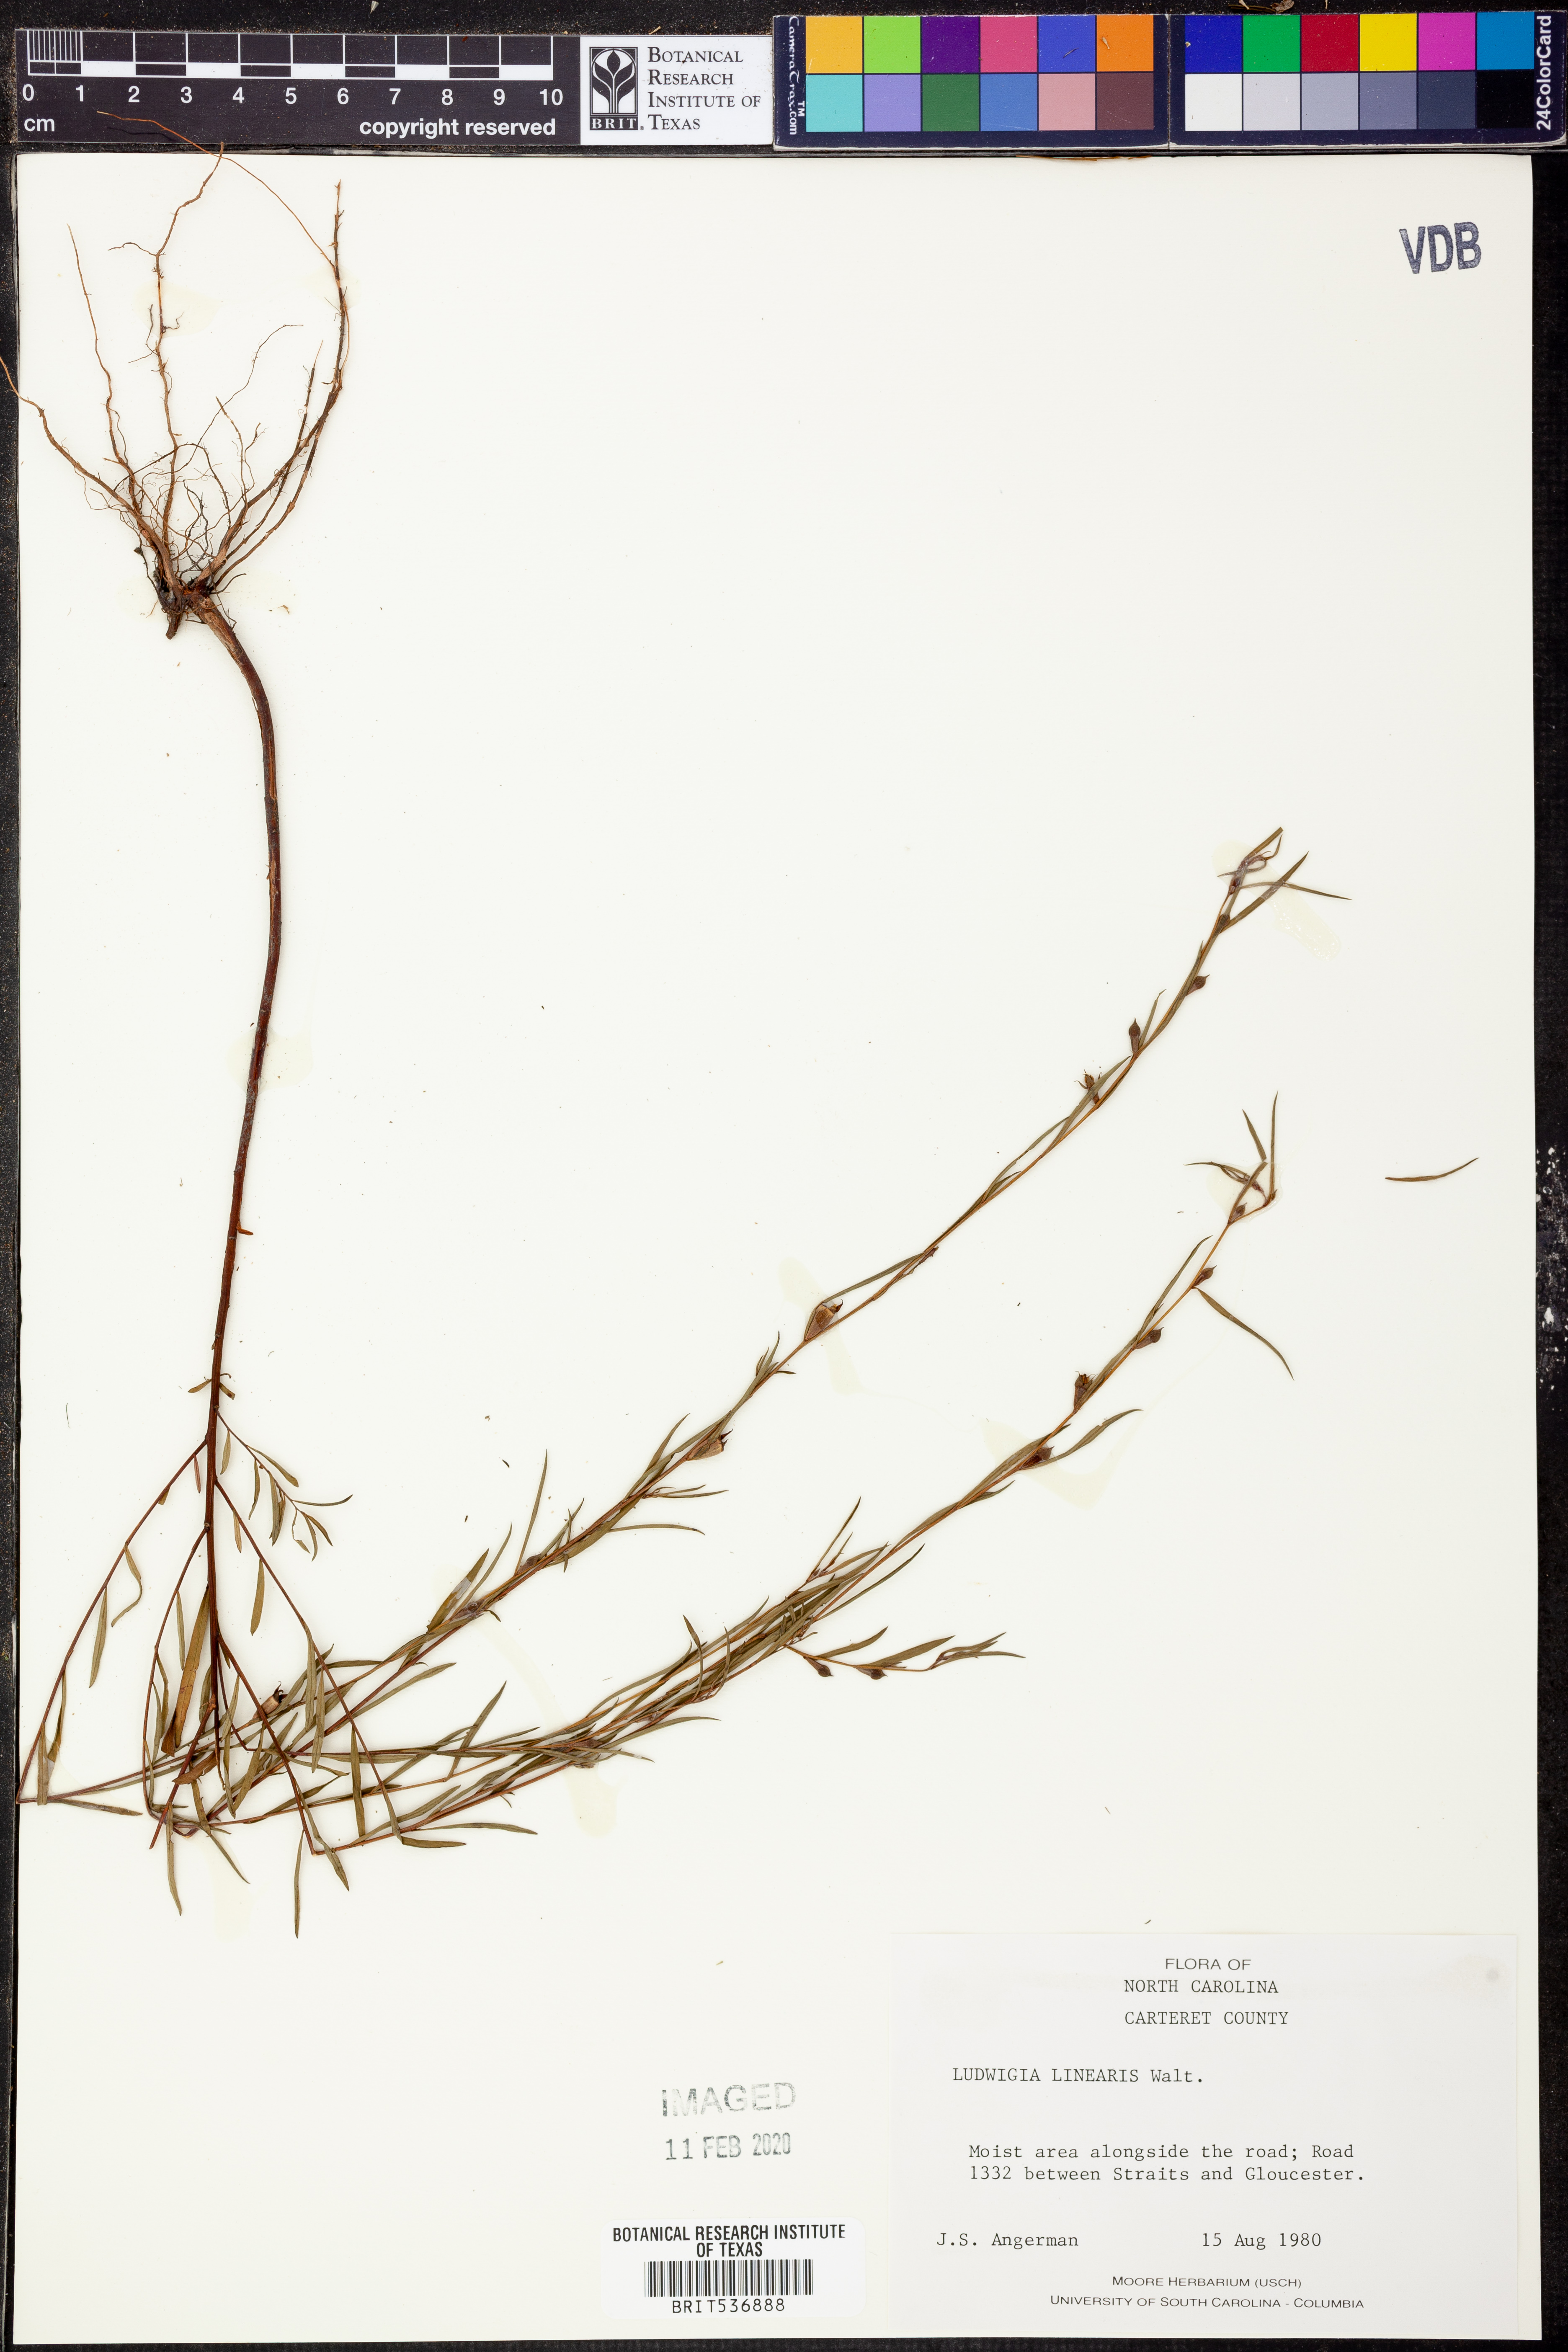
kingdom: Plantae
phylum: Tracheophyta
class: Magnoliopsida
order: Myrtales
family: Onagraceae
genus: Ludwigia
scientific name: Ludwigia linearis
